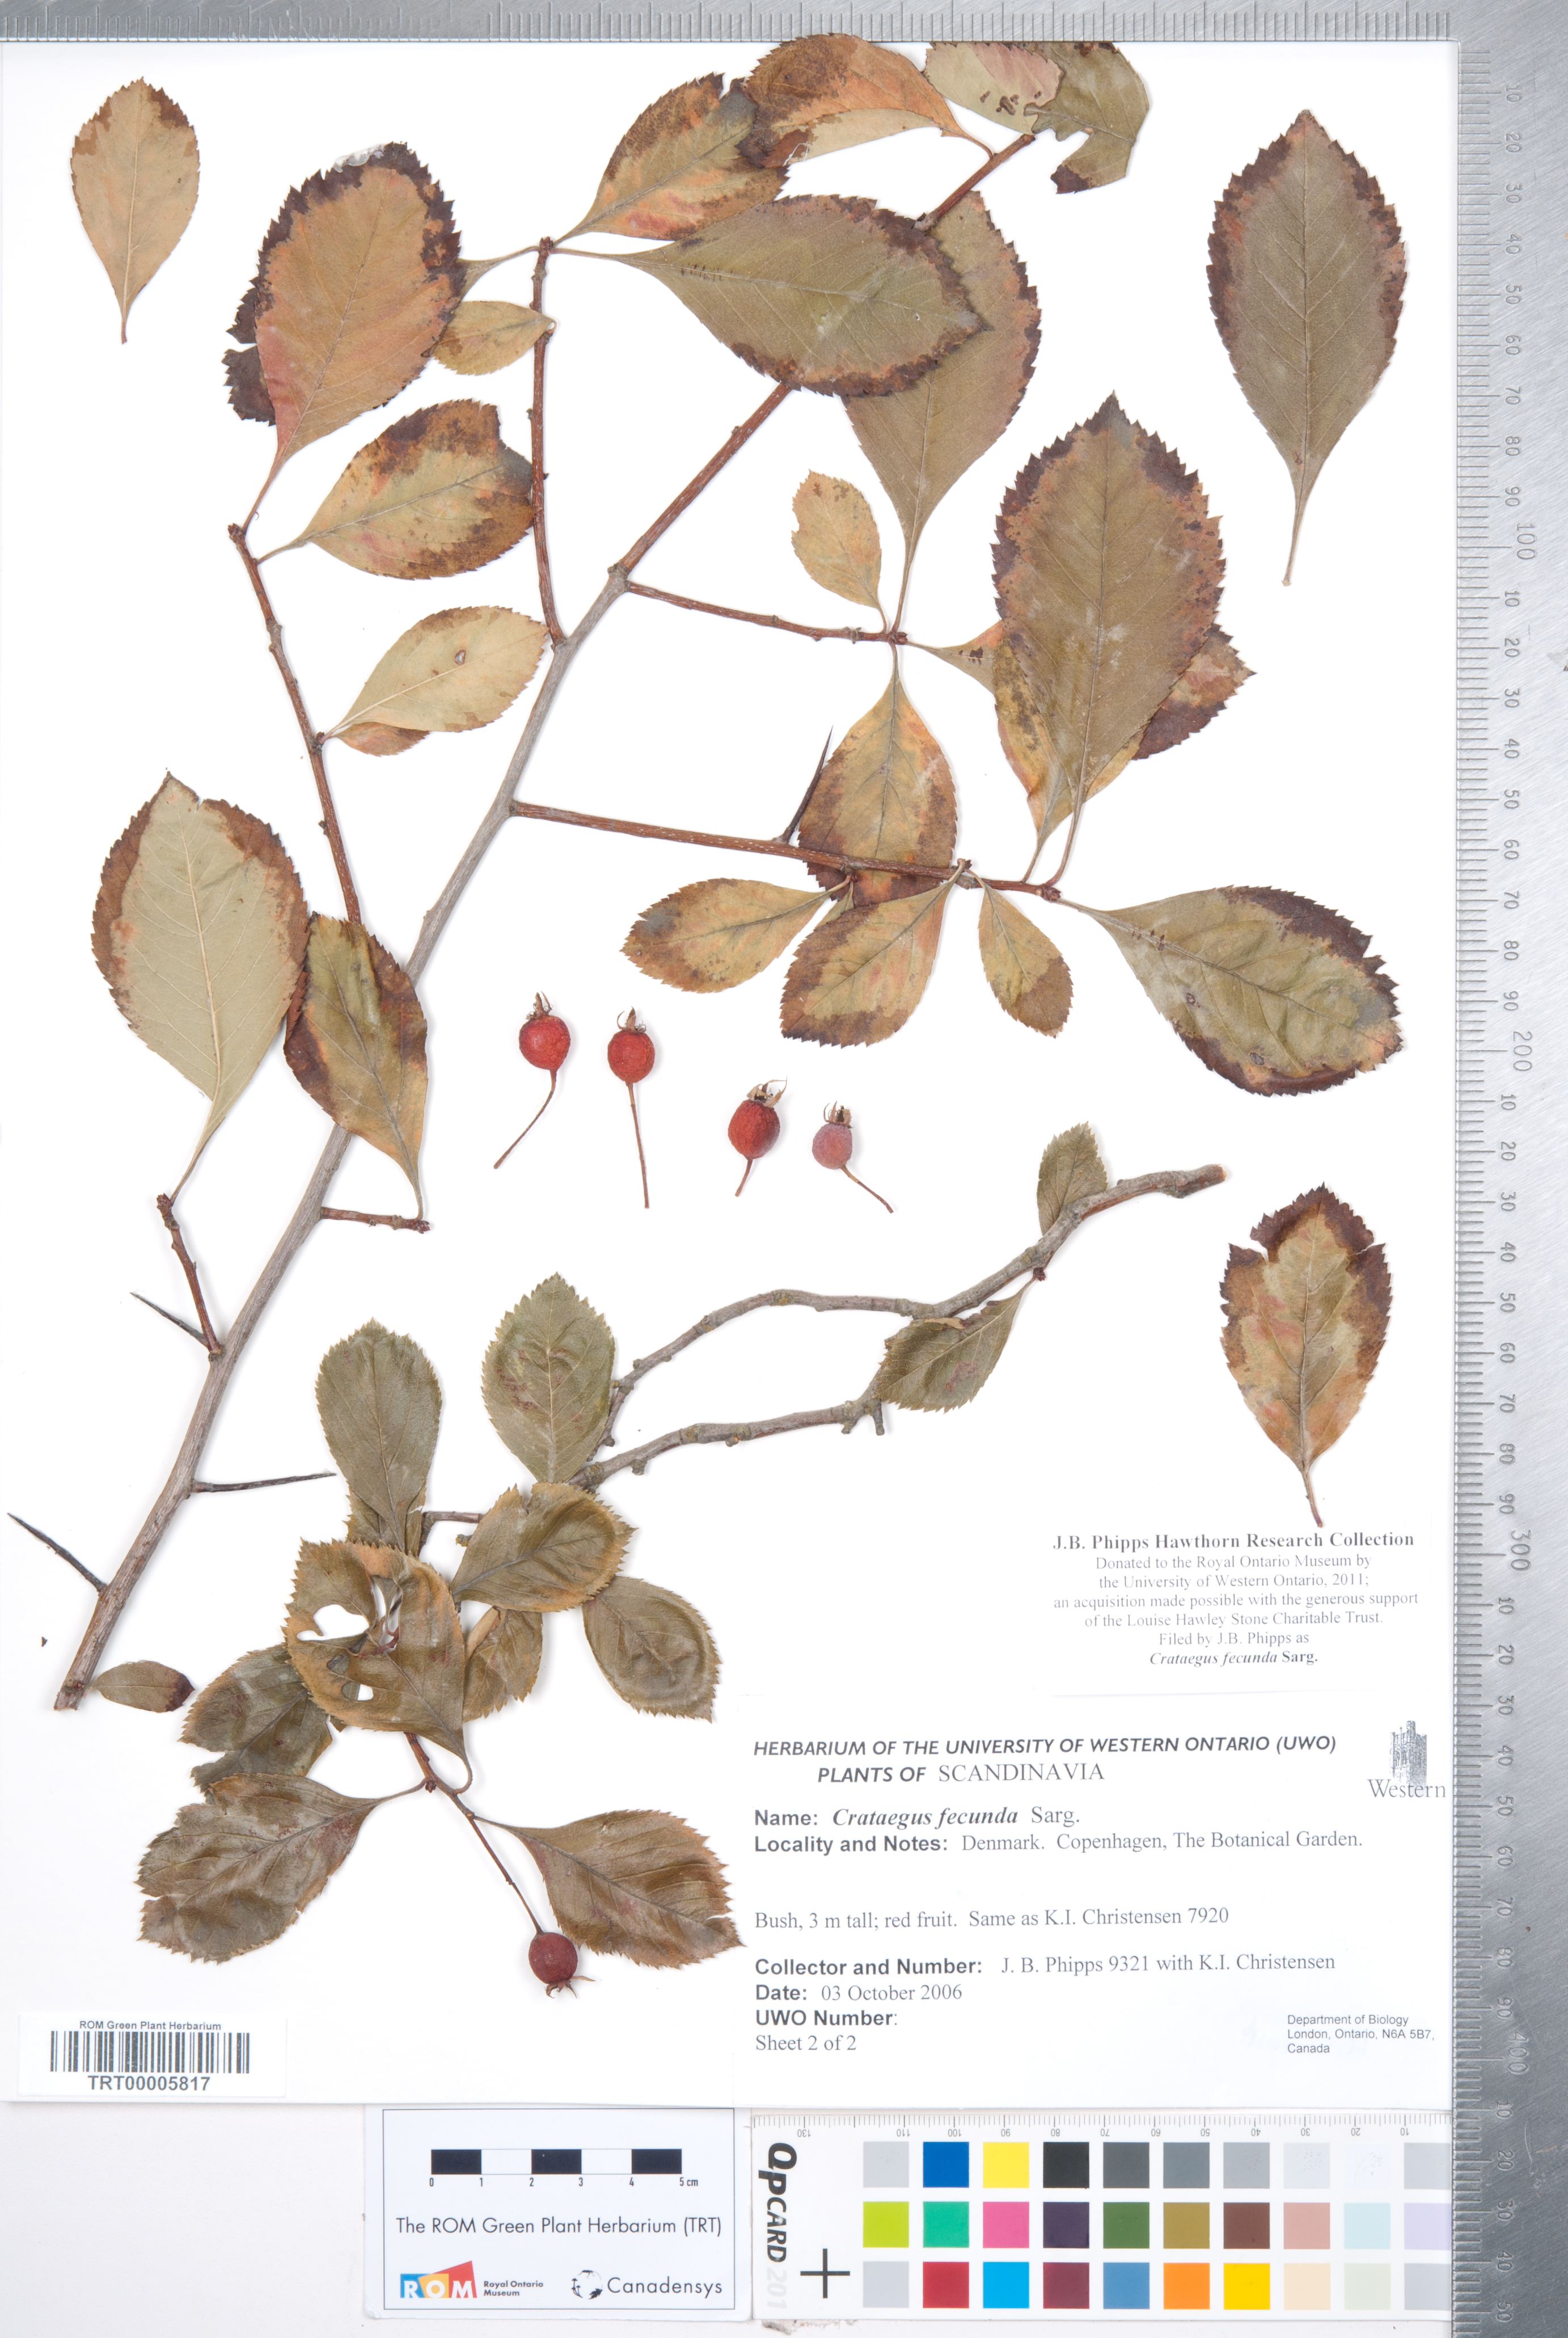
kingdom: Plantae
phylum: Tracheophyta
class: Magnoliopsida
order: Rosales
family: Rosaceae
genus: Crataegus
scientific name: Crataegus fecunda
